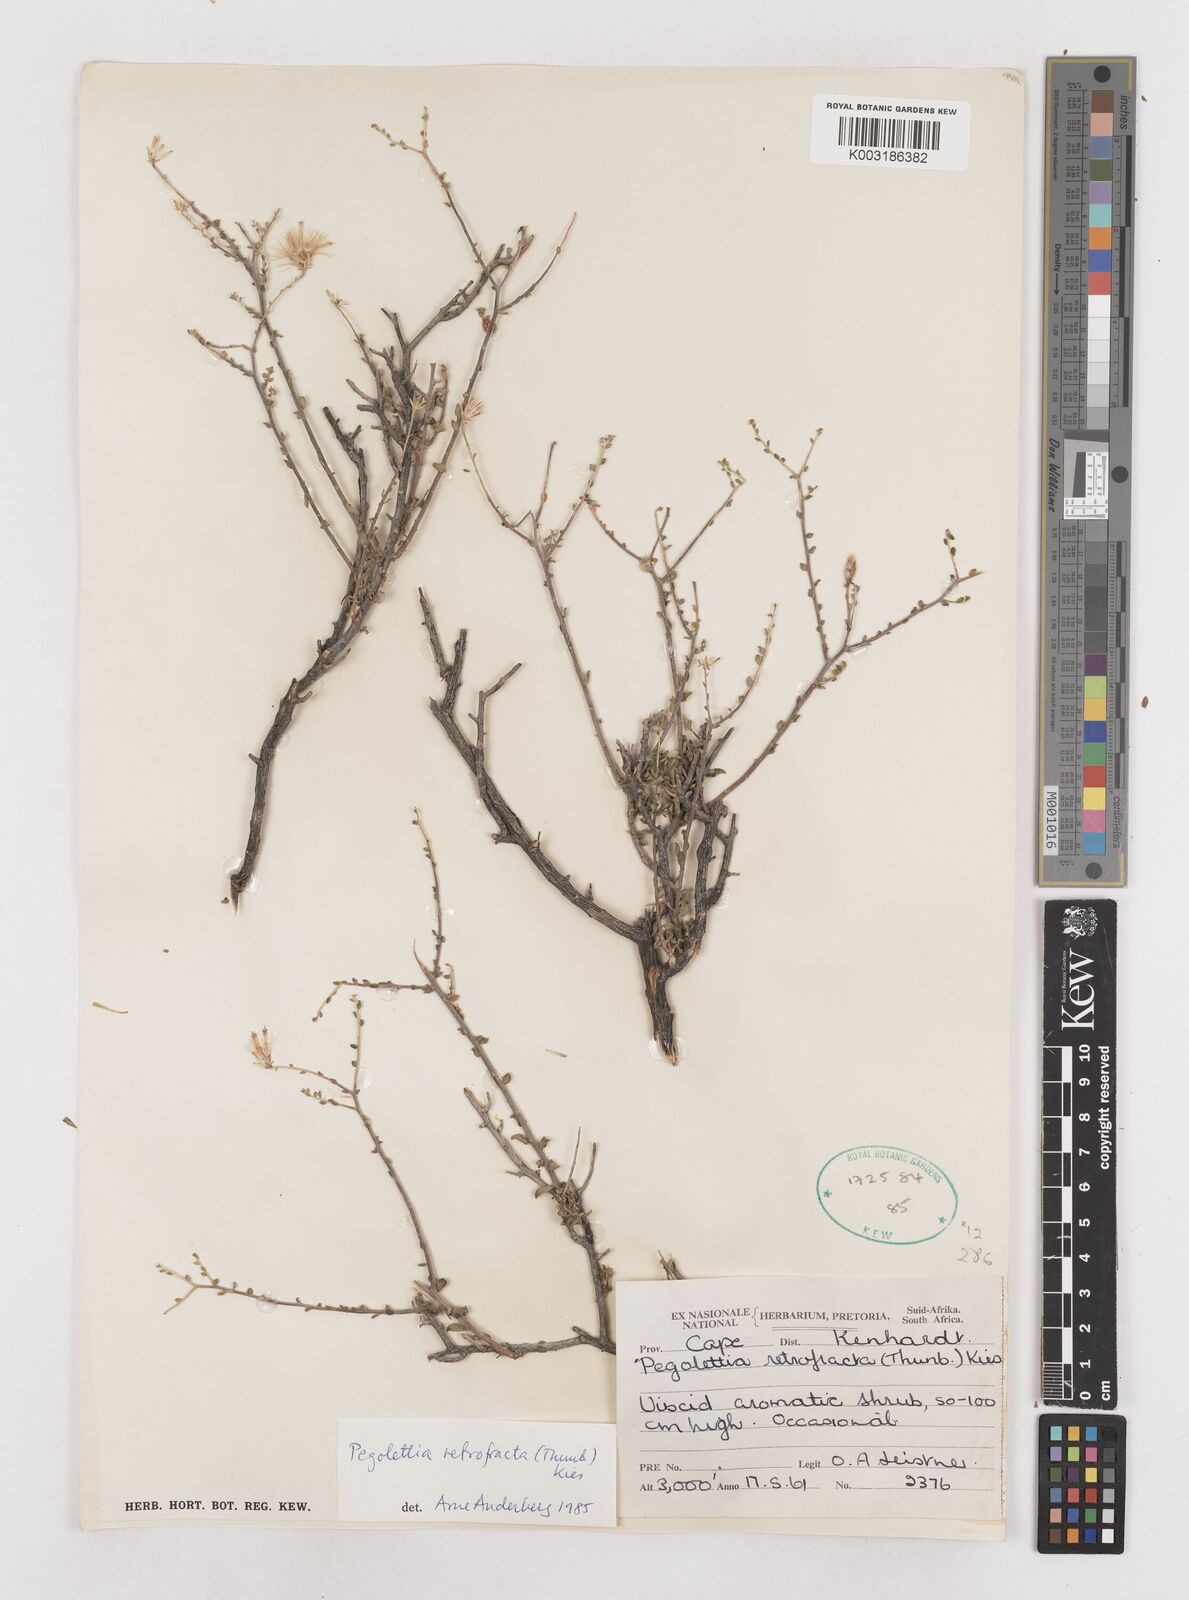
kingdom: Plantae
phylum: Tracheophyta
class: Magnoliopsida
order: Asterales
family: Asteraceae
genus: Pegolettia
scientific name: Pegolettia retrofracta
